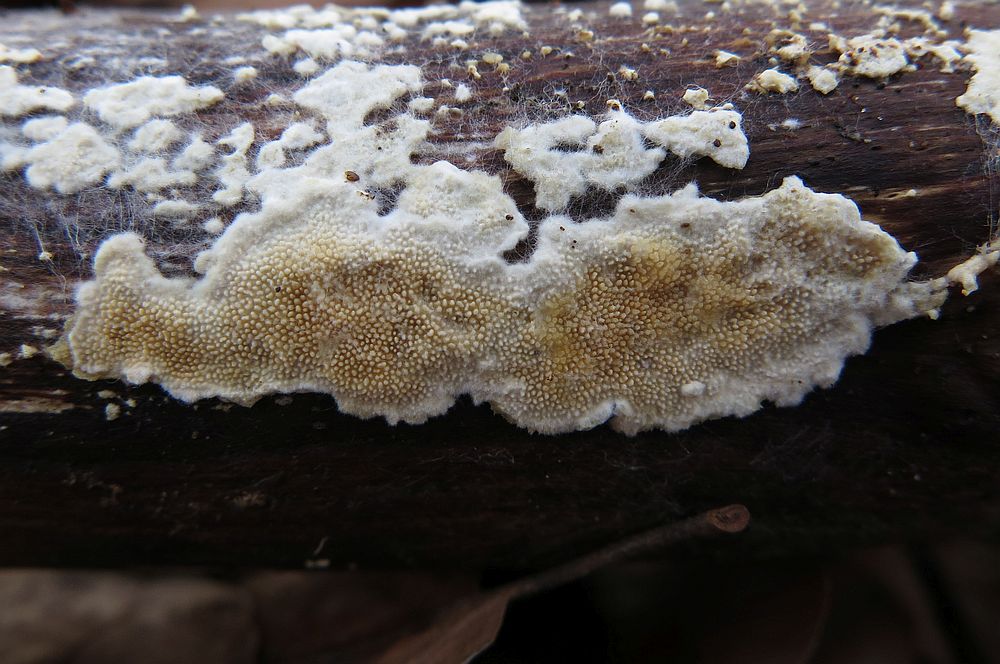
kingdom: Fungi
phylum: Basidiomycota
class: Agaricomycetes
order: Polyporales
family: Steccherinaceae
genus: Steccherinum
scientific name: Steccherinum ochraceum
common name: almindelig skønpig
